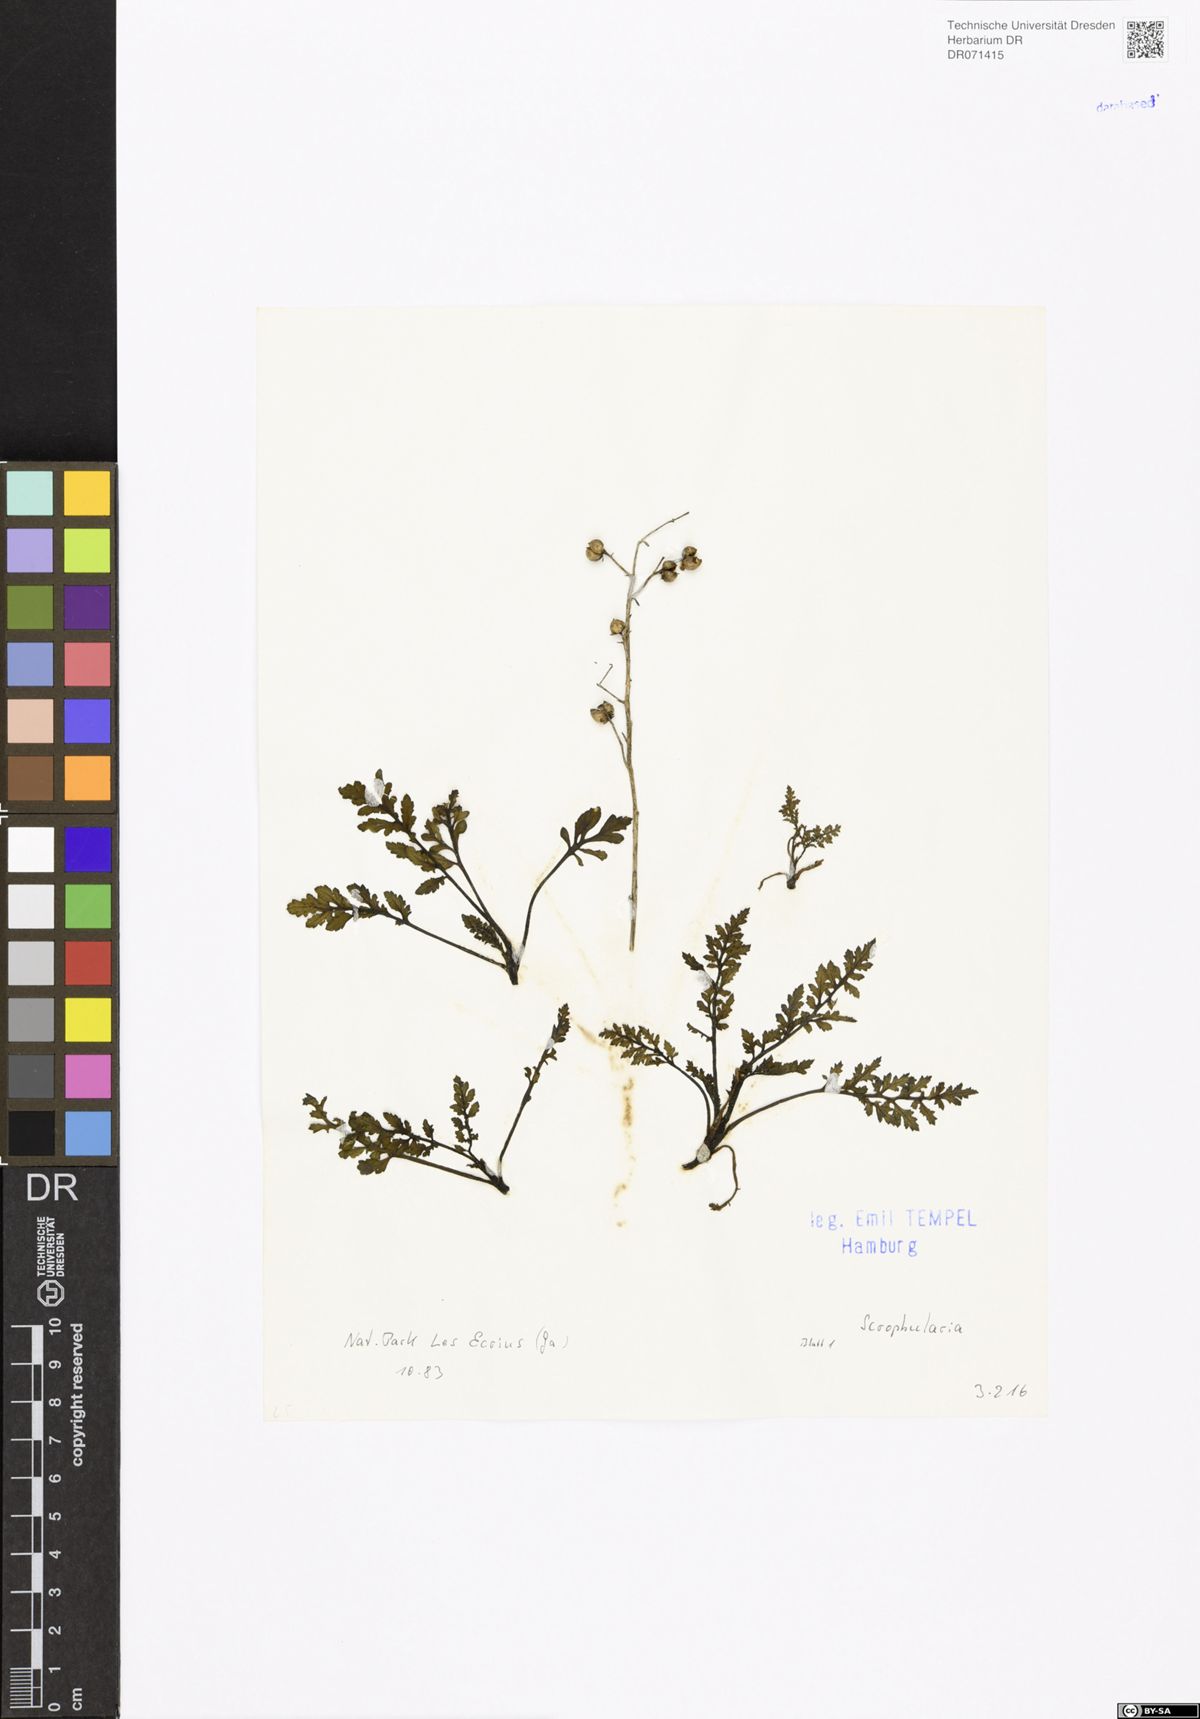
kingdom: Plantae
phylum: Tracheophyta
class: Magnoliopsida
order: Lamiales
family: Scrophulariaceae
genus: Scrophularia
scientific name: Scrophularia
